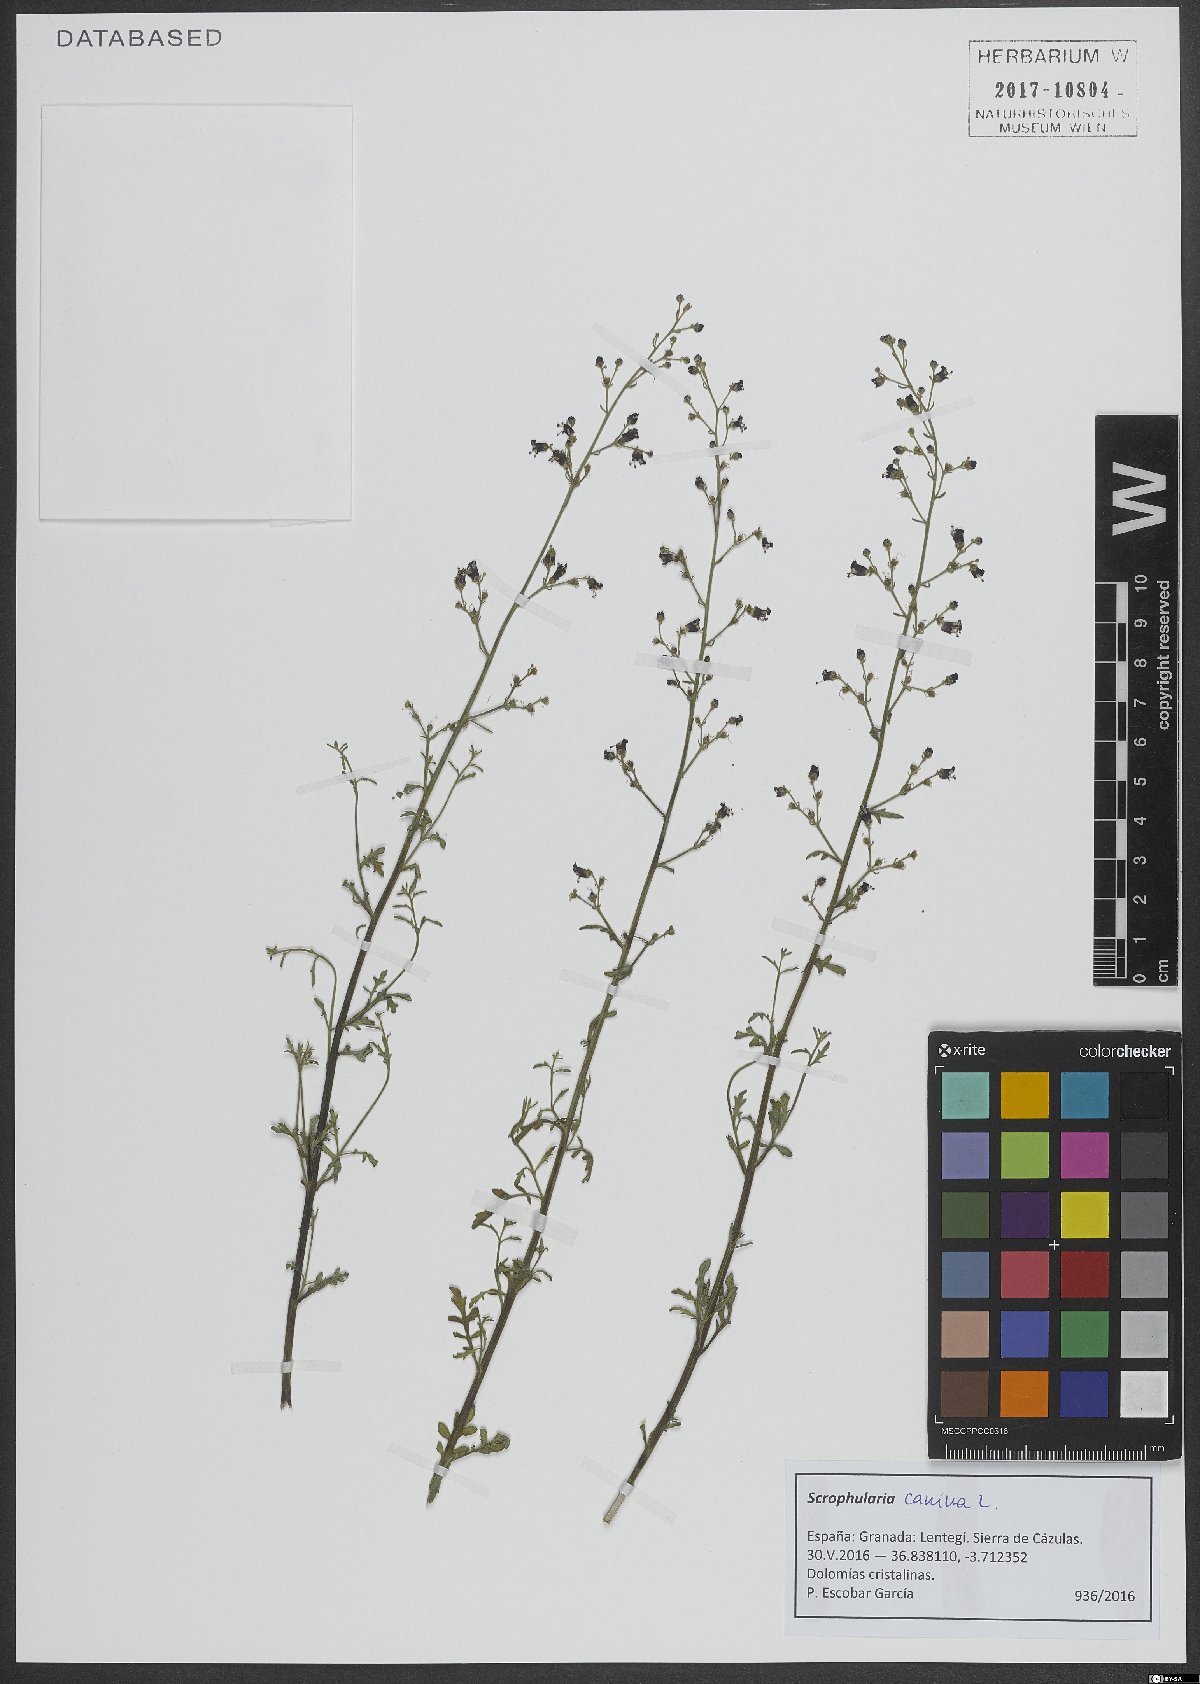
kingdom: Plantae
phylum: Tracheophyta
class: Magnoliopsida
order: Lamiales
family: Scrophulariaceae
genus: Scrophularia
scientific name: Scrophularia canina
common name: French figwort
